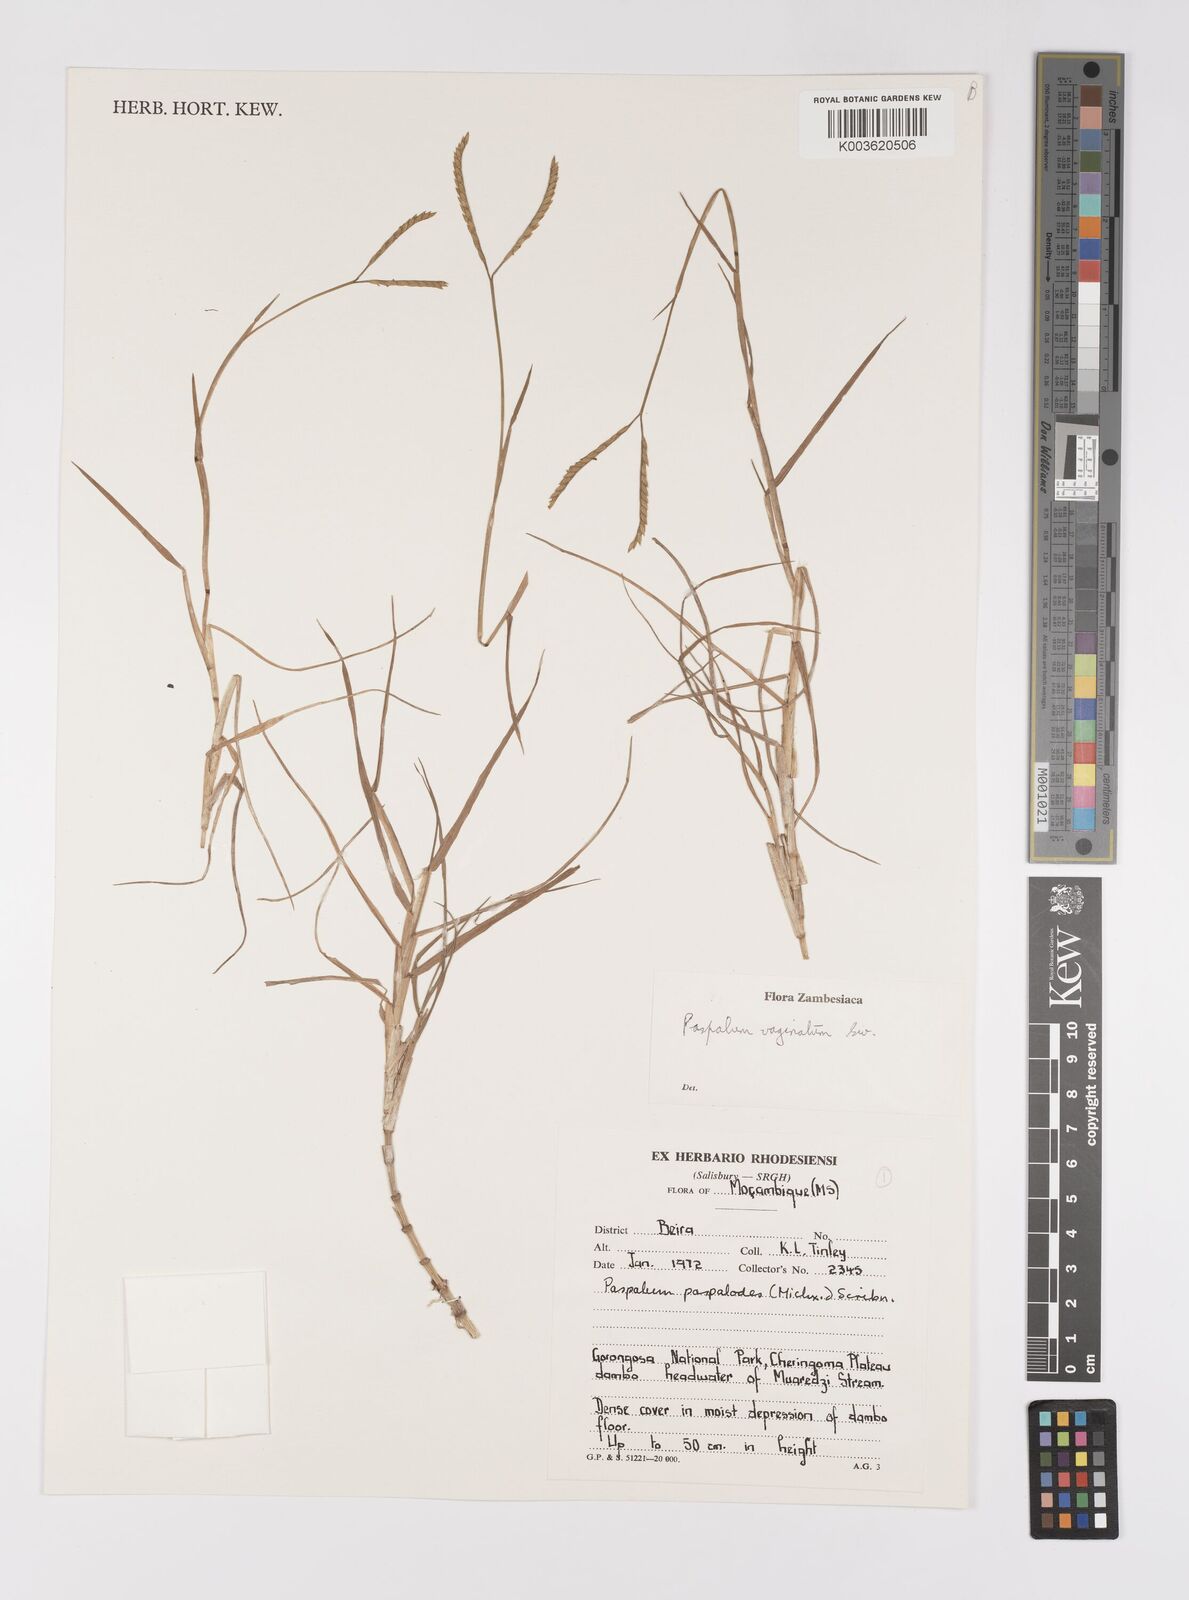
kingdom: Plantae
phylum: Tracheophyta
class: Liliopsida
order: Poales
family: Poaceae
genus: Paspalum
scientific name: Paspalum vaginatum
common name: Seashore paspalum
